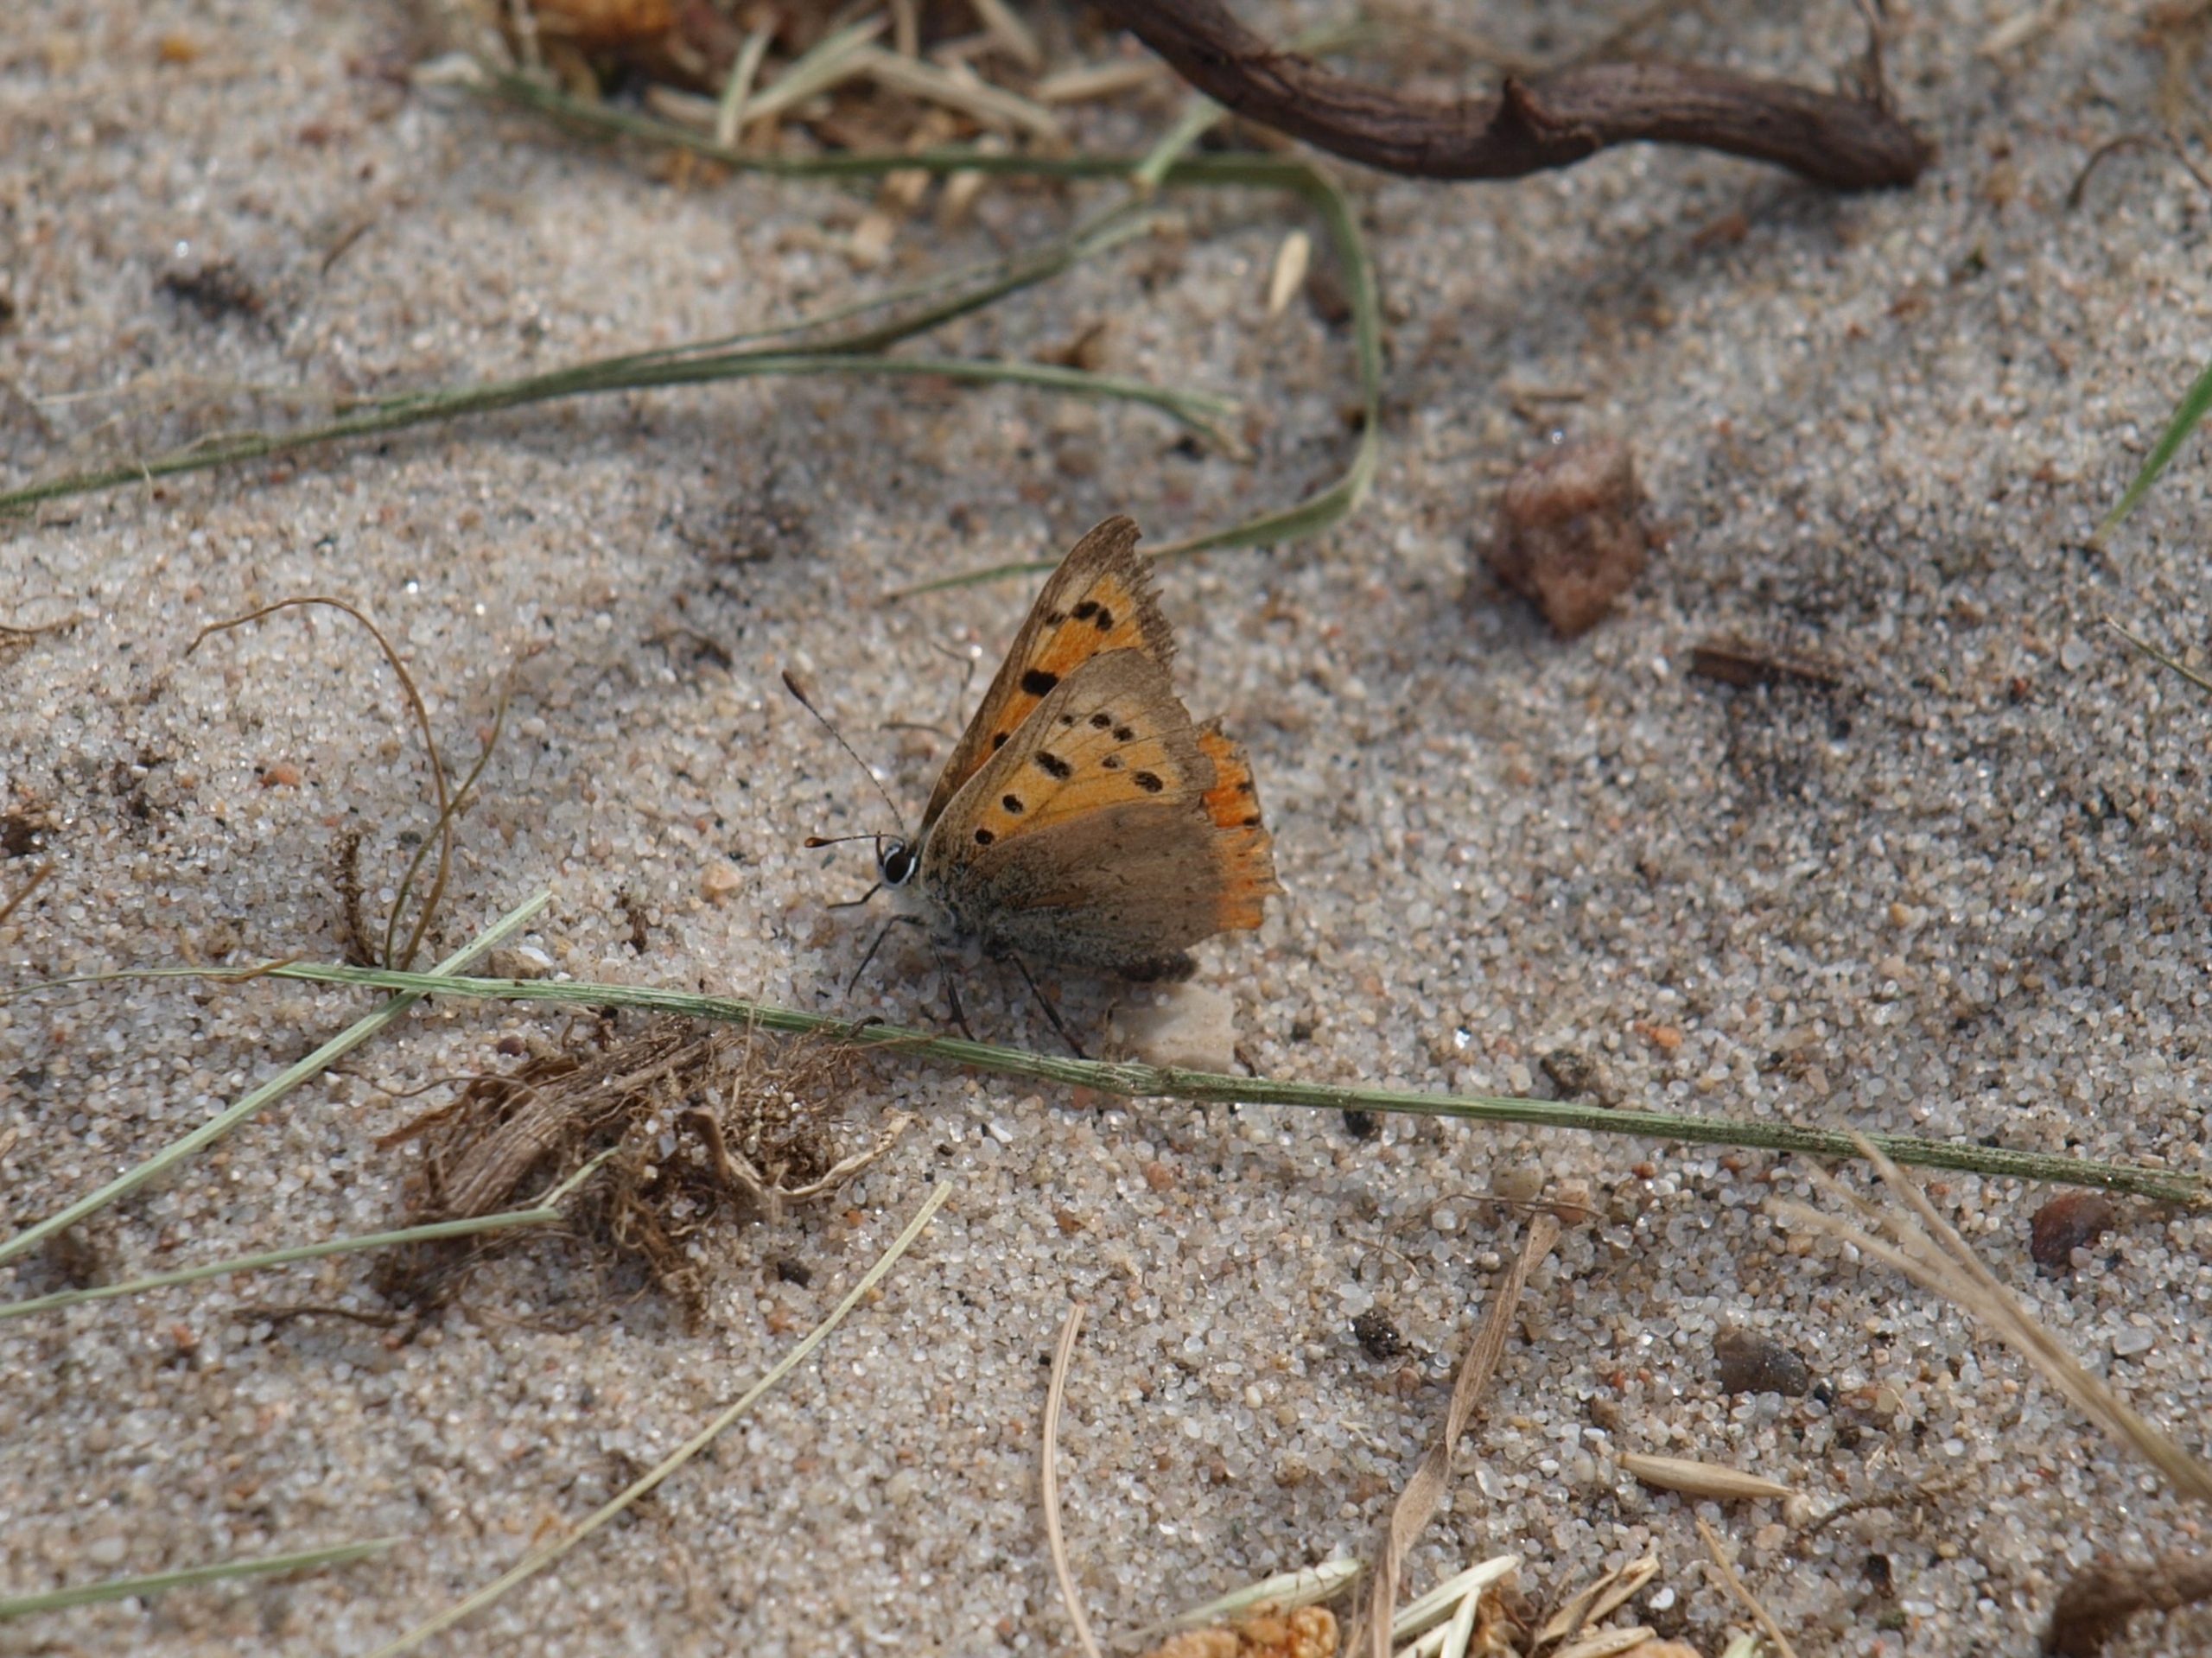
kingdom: Animalia
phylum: Arthropoda
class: Insecta
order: Lepidoptera
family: Lycaenidae
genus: Lycaena
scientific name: Lycaena phlaeas
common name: Lille ildfugl
